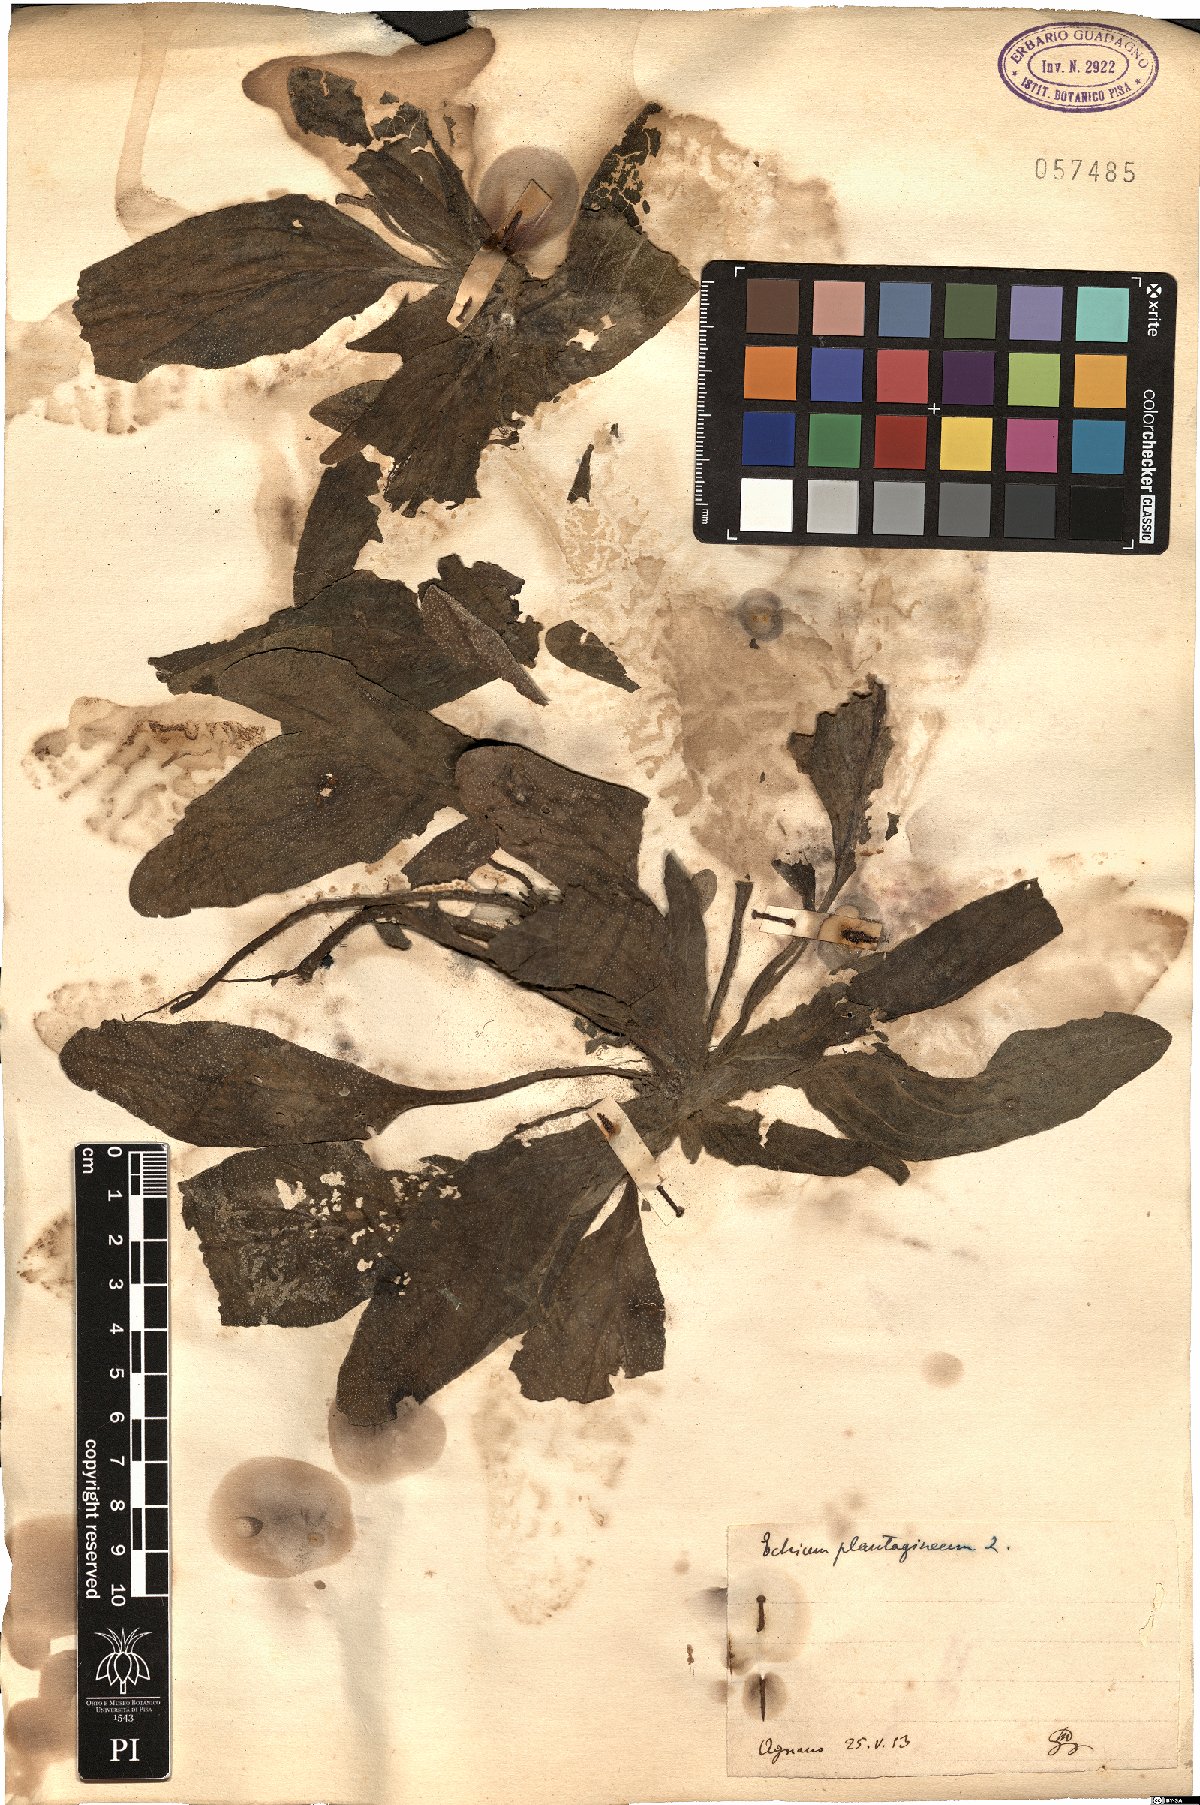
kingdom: Plantae
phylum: Tracheophyta
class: Magnoliopsida
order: Boraginales
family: Boraginaceae
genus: Echium
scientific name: Echium plantagineum
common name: Purple viper's-bugloss
